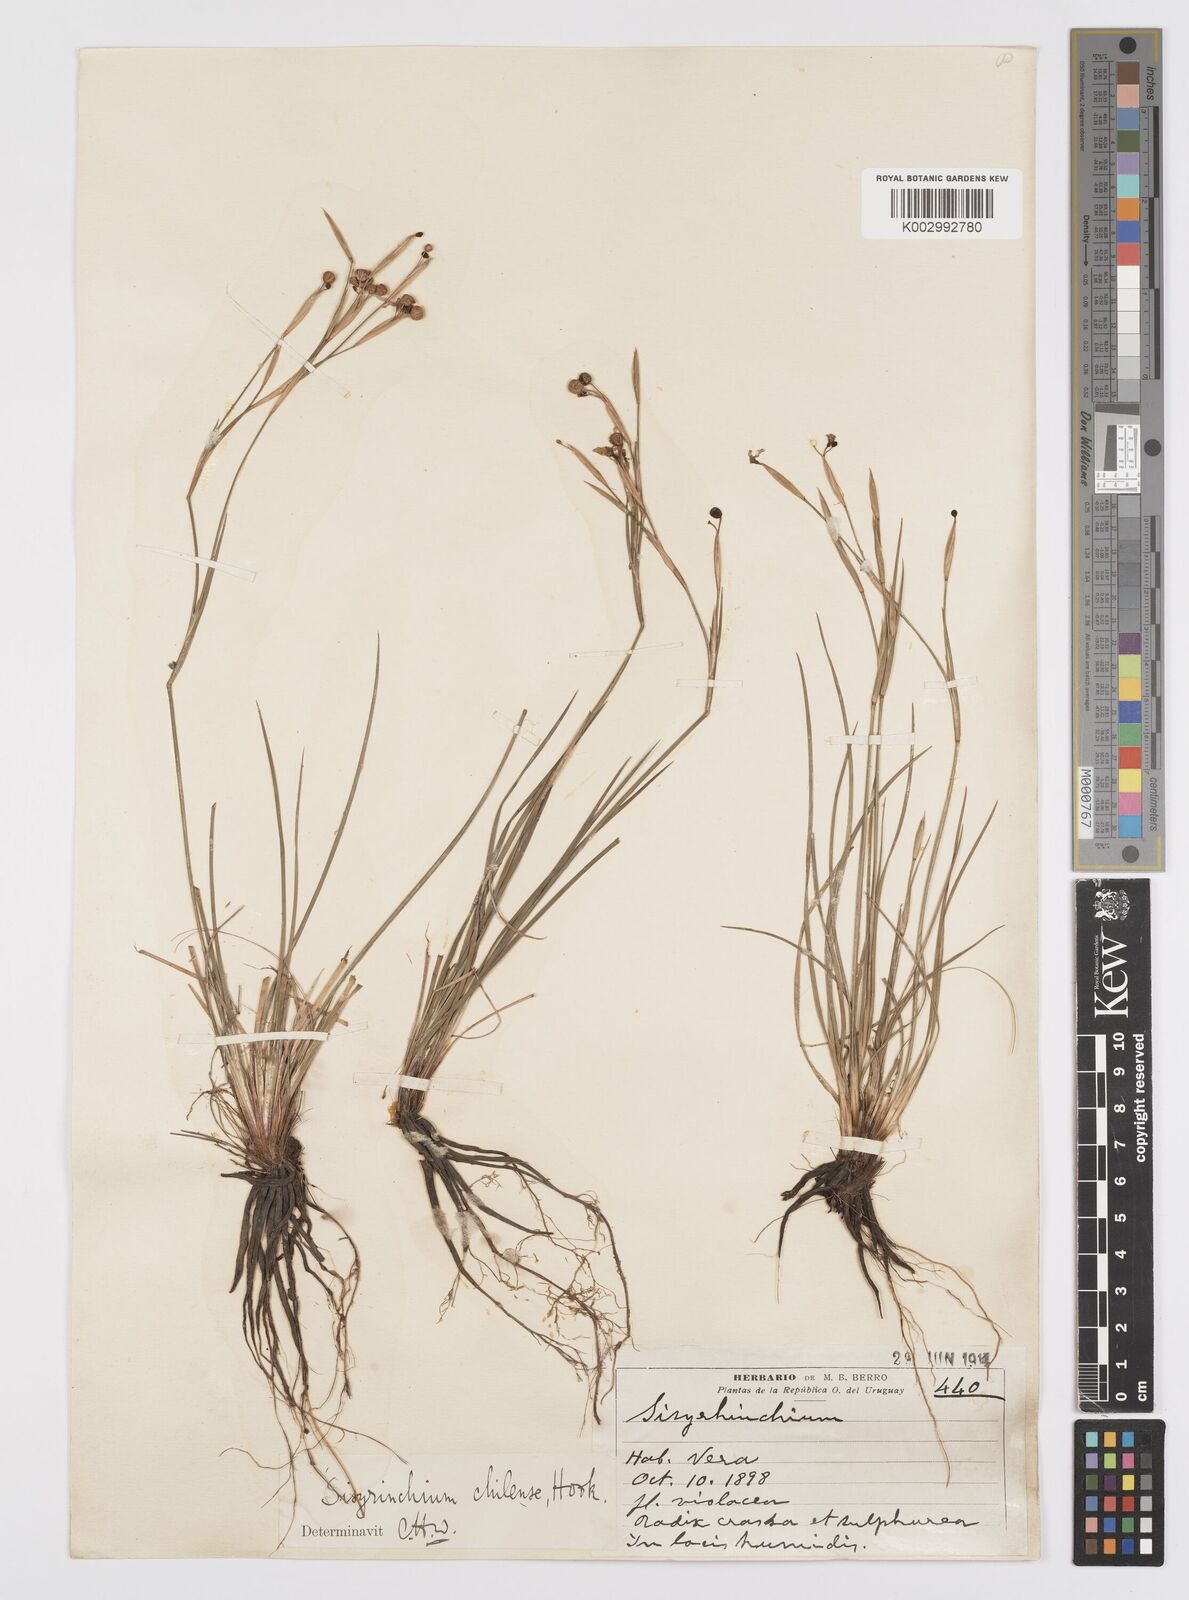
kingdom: Plantae
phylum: Tracheophyta
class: Liliopsida
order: Asparagales
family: Iridaceae
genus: Sisyrinchium
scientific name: Sisyrinchium chilense
